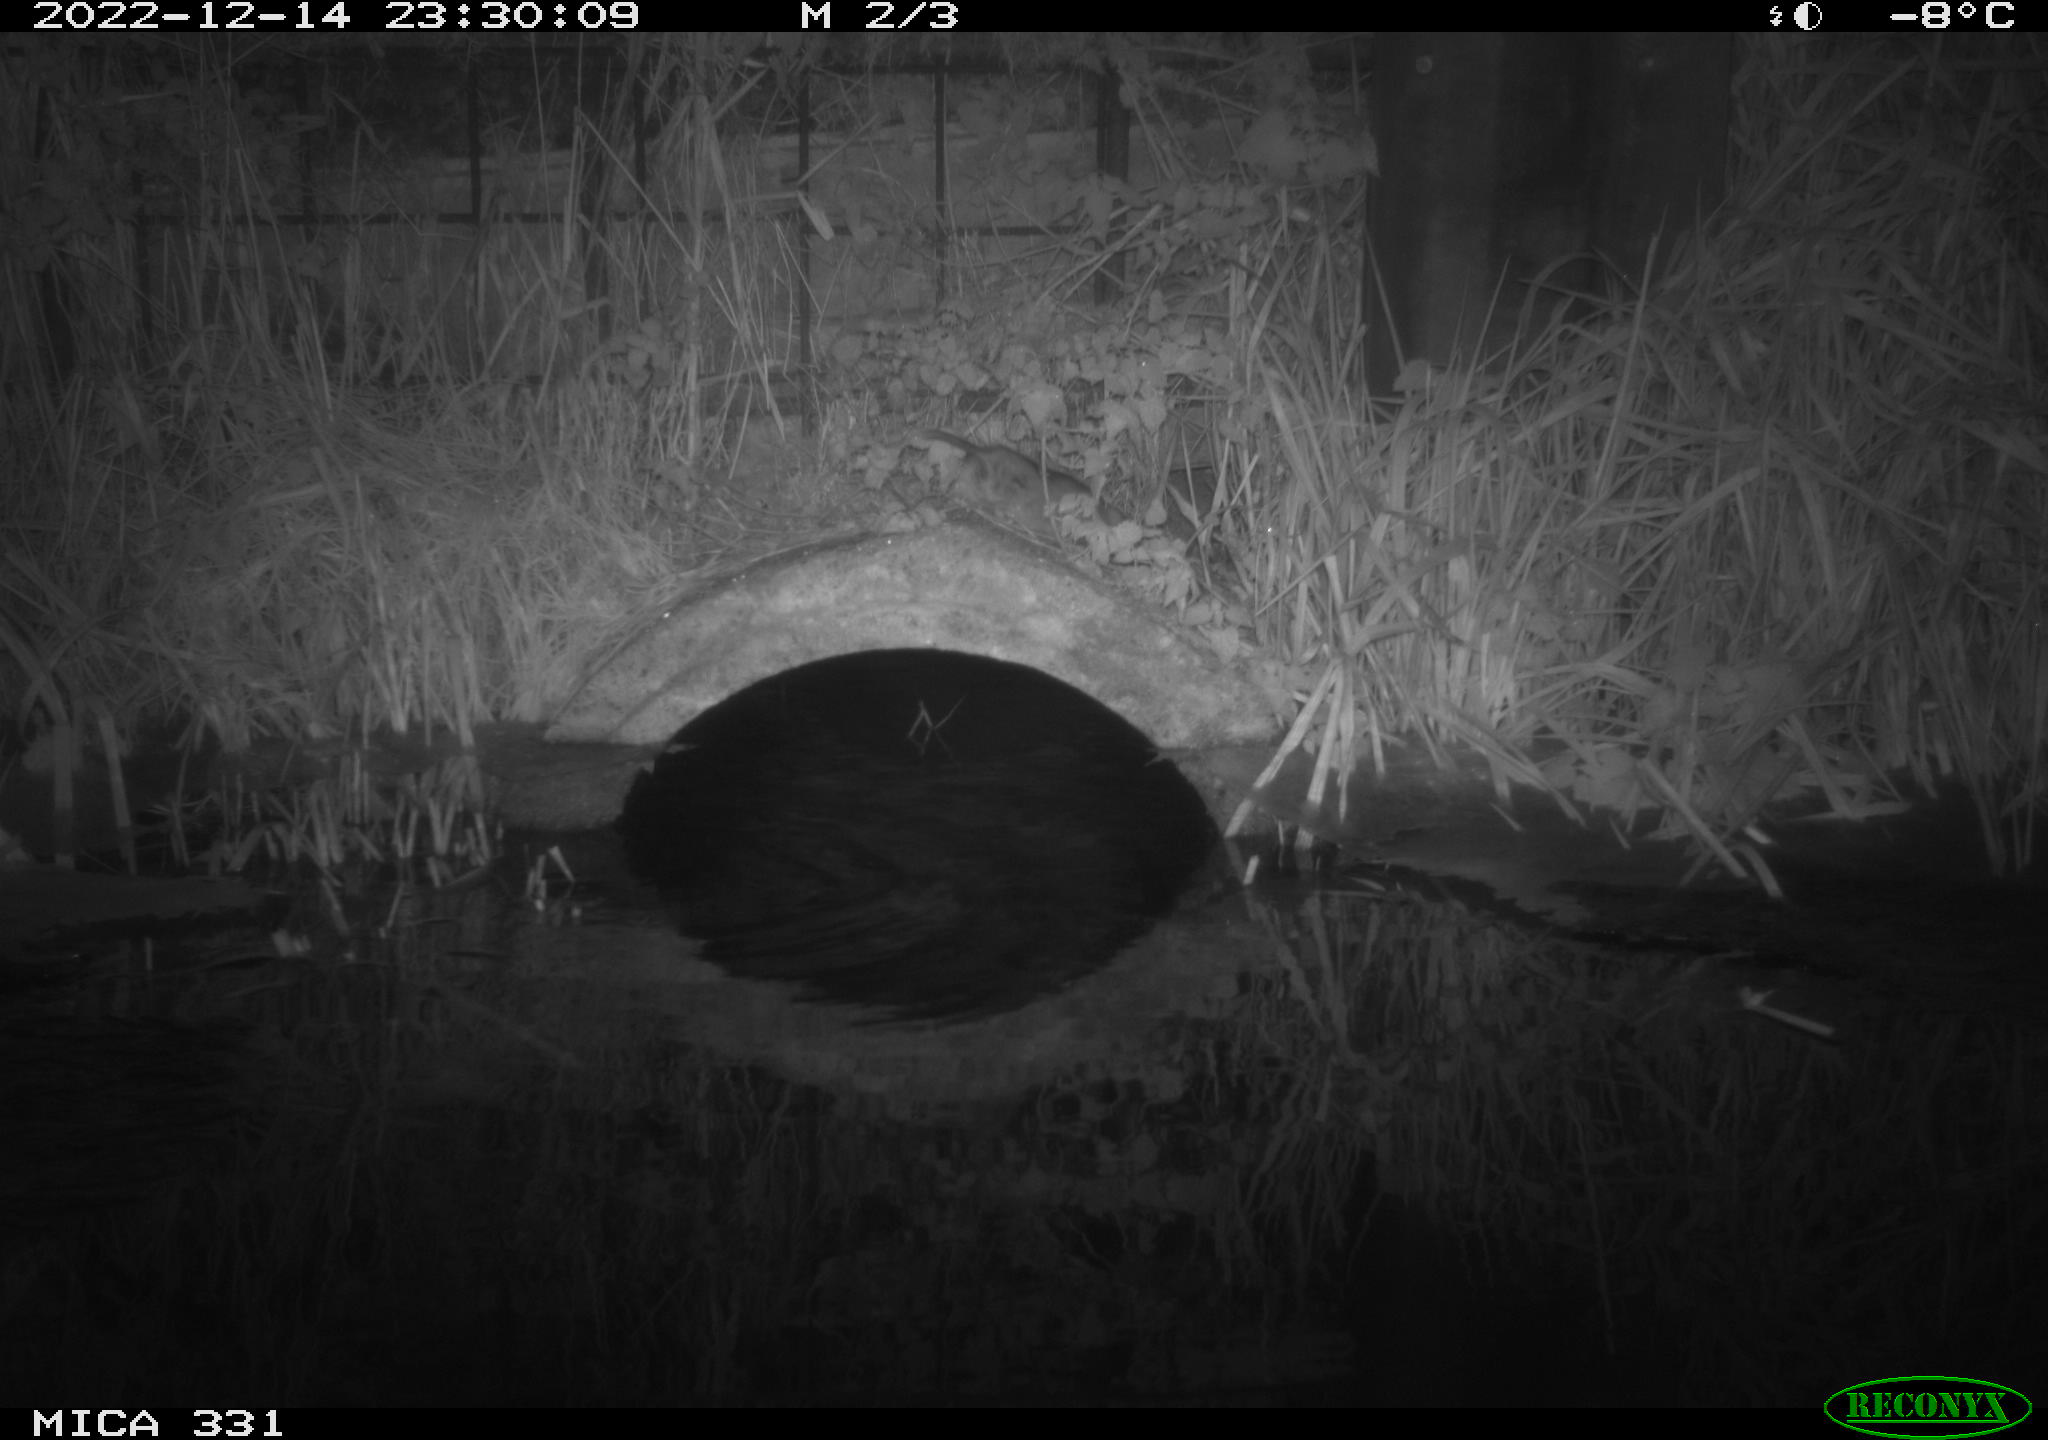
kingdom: Animalia
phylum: Chordata
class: Mammalia
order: Rodentia
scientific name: Rodentia
